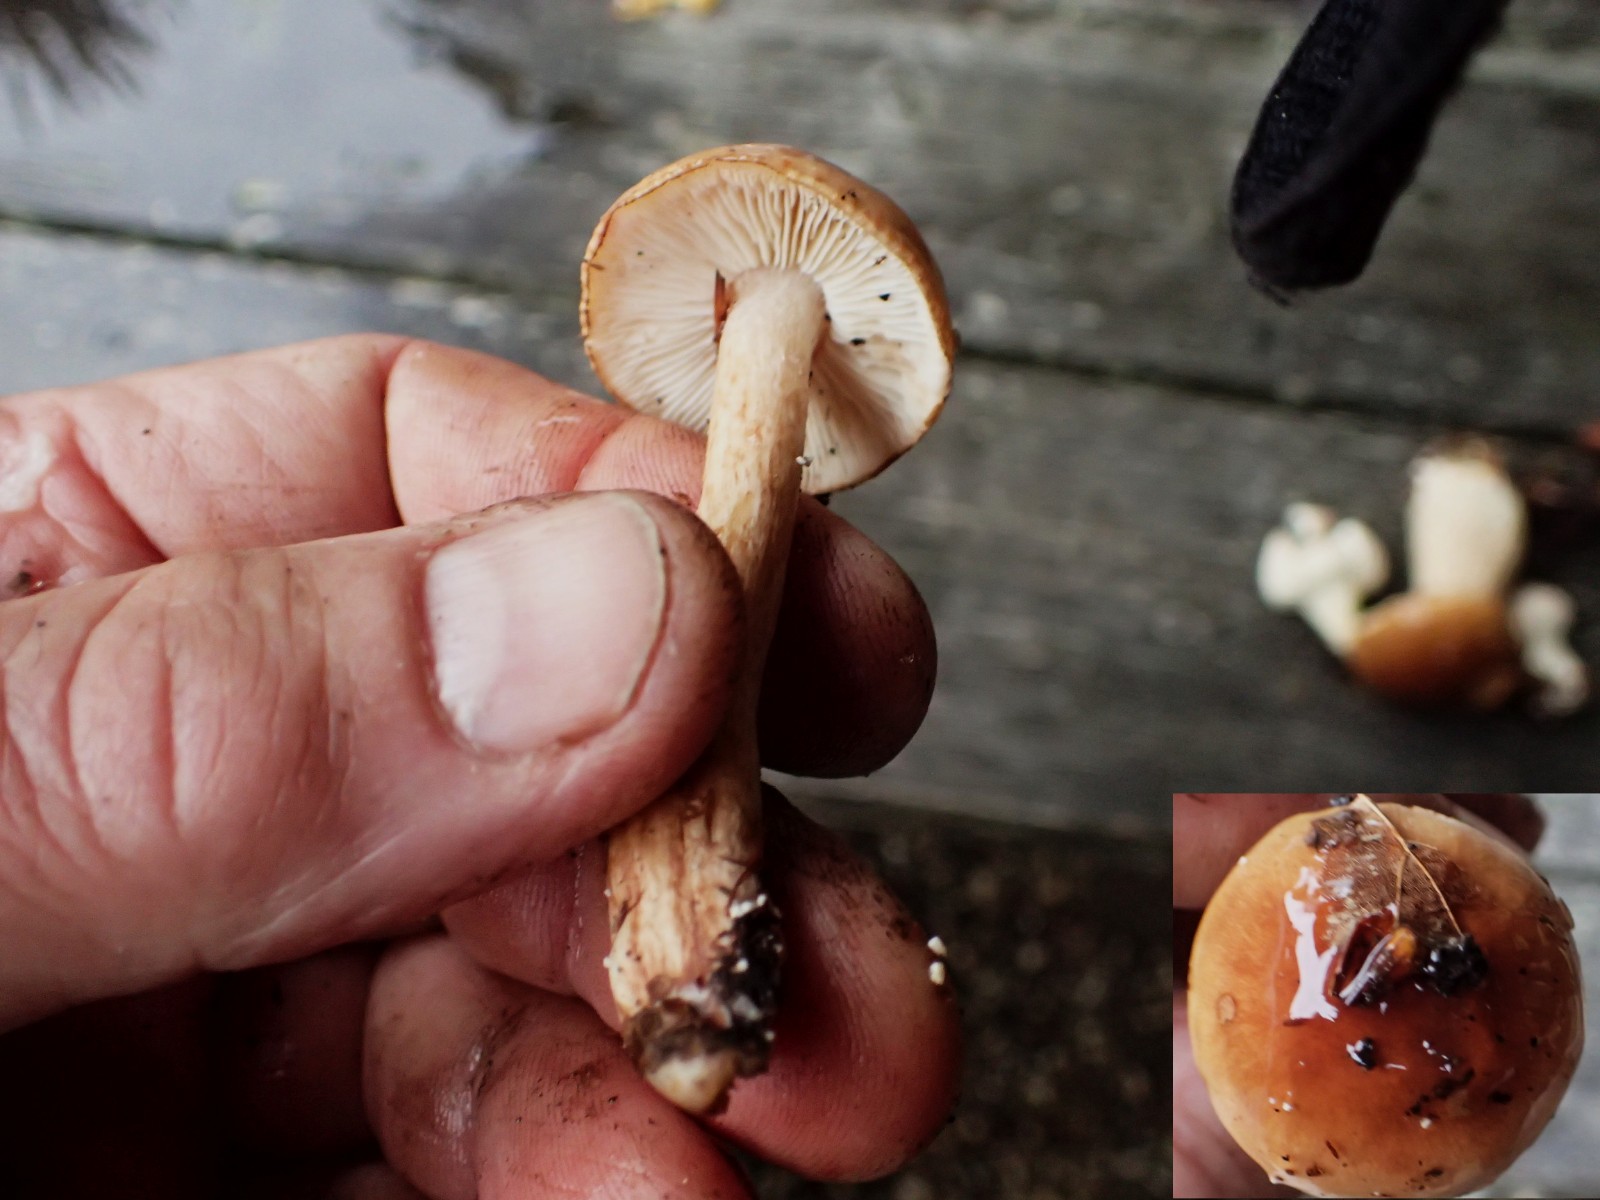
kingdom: Fungi
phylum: Basidiomycota
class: Agaricomycetes
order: Agaricales
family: Tricholomataceae
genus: Tricholoma
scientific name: Tricholoma
